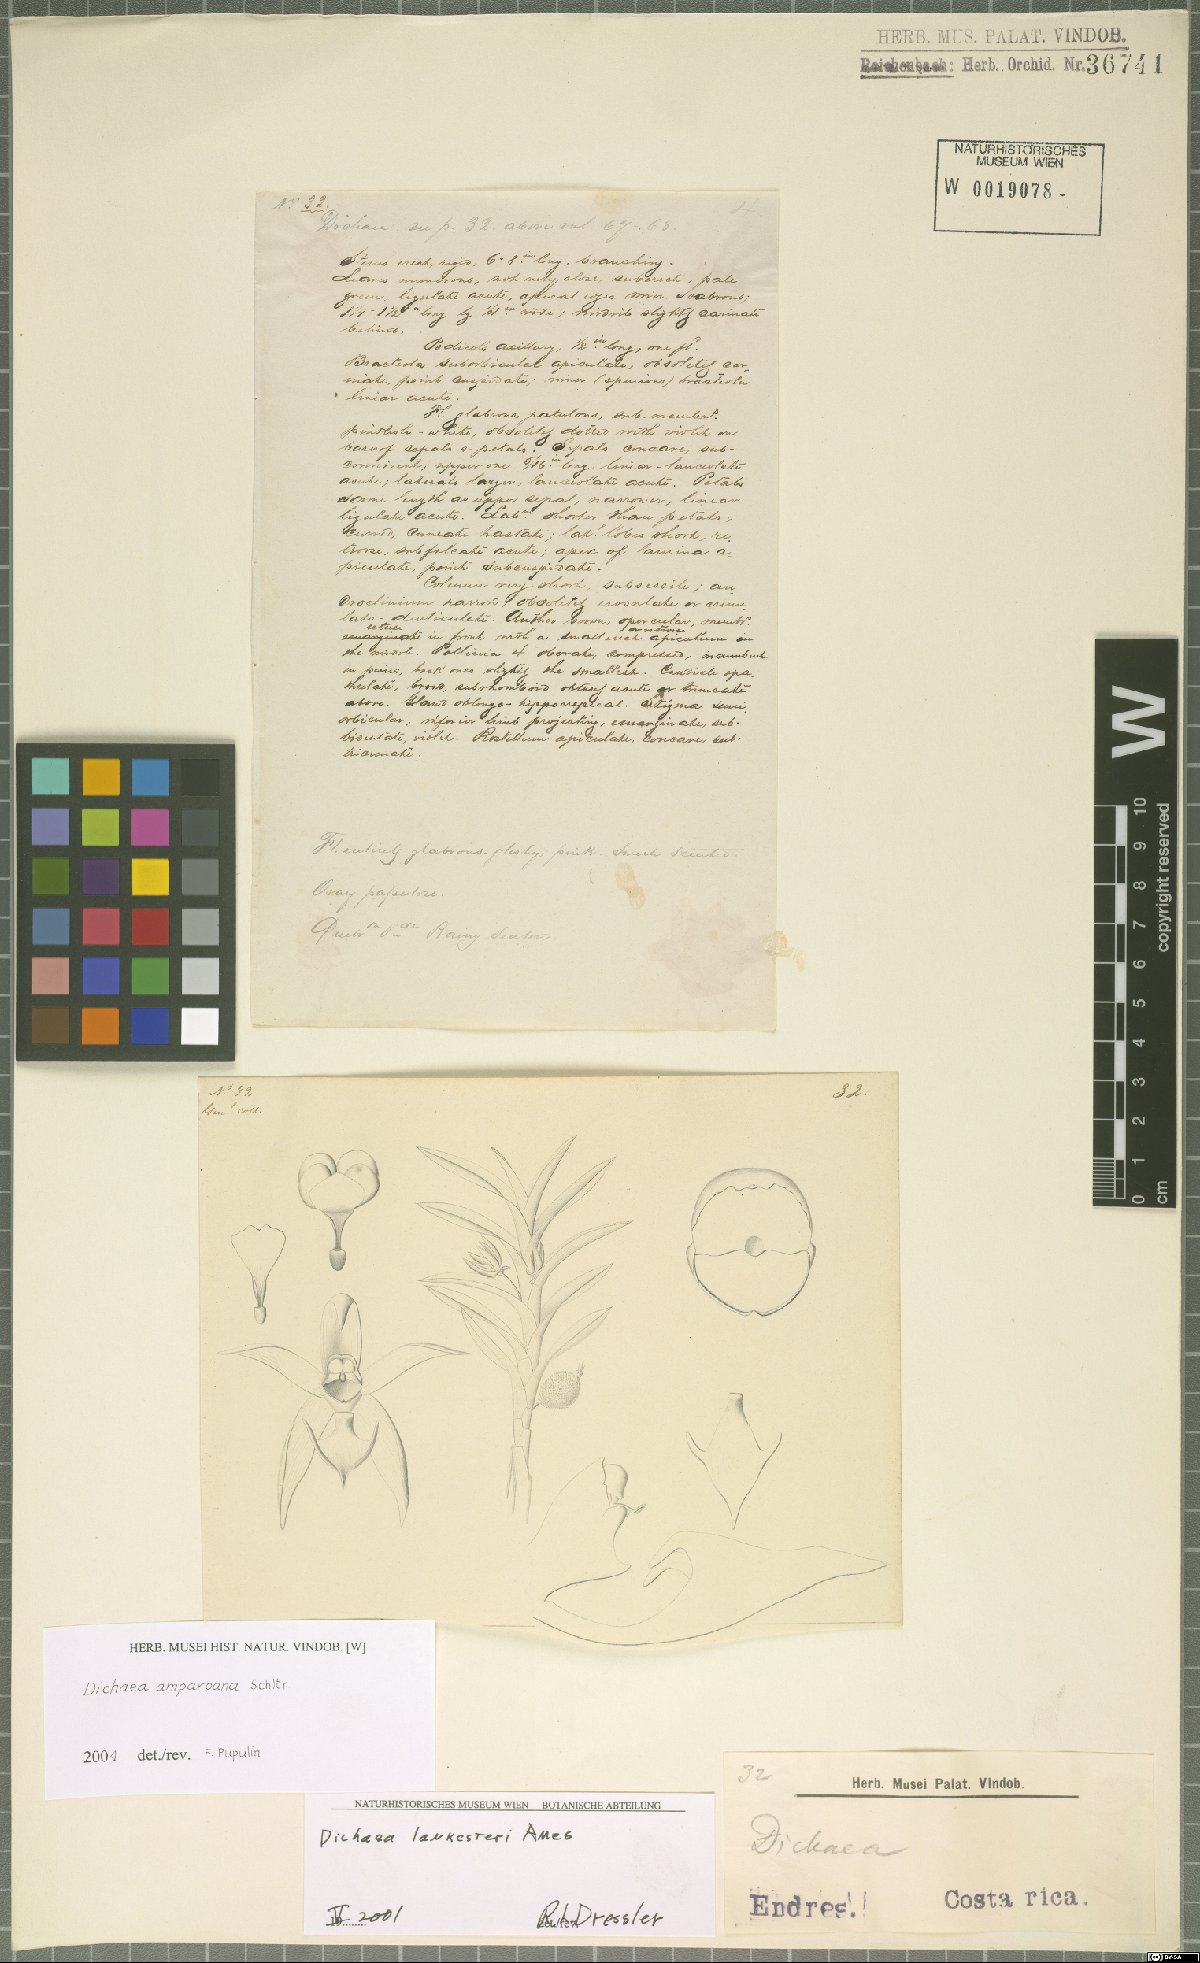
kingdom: Plantae
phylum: Tracheophyta
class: Liliopsida
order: Asparagales
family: Orchidaceae
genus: Dichaea
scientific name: Dichaea amparoana
